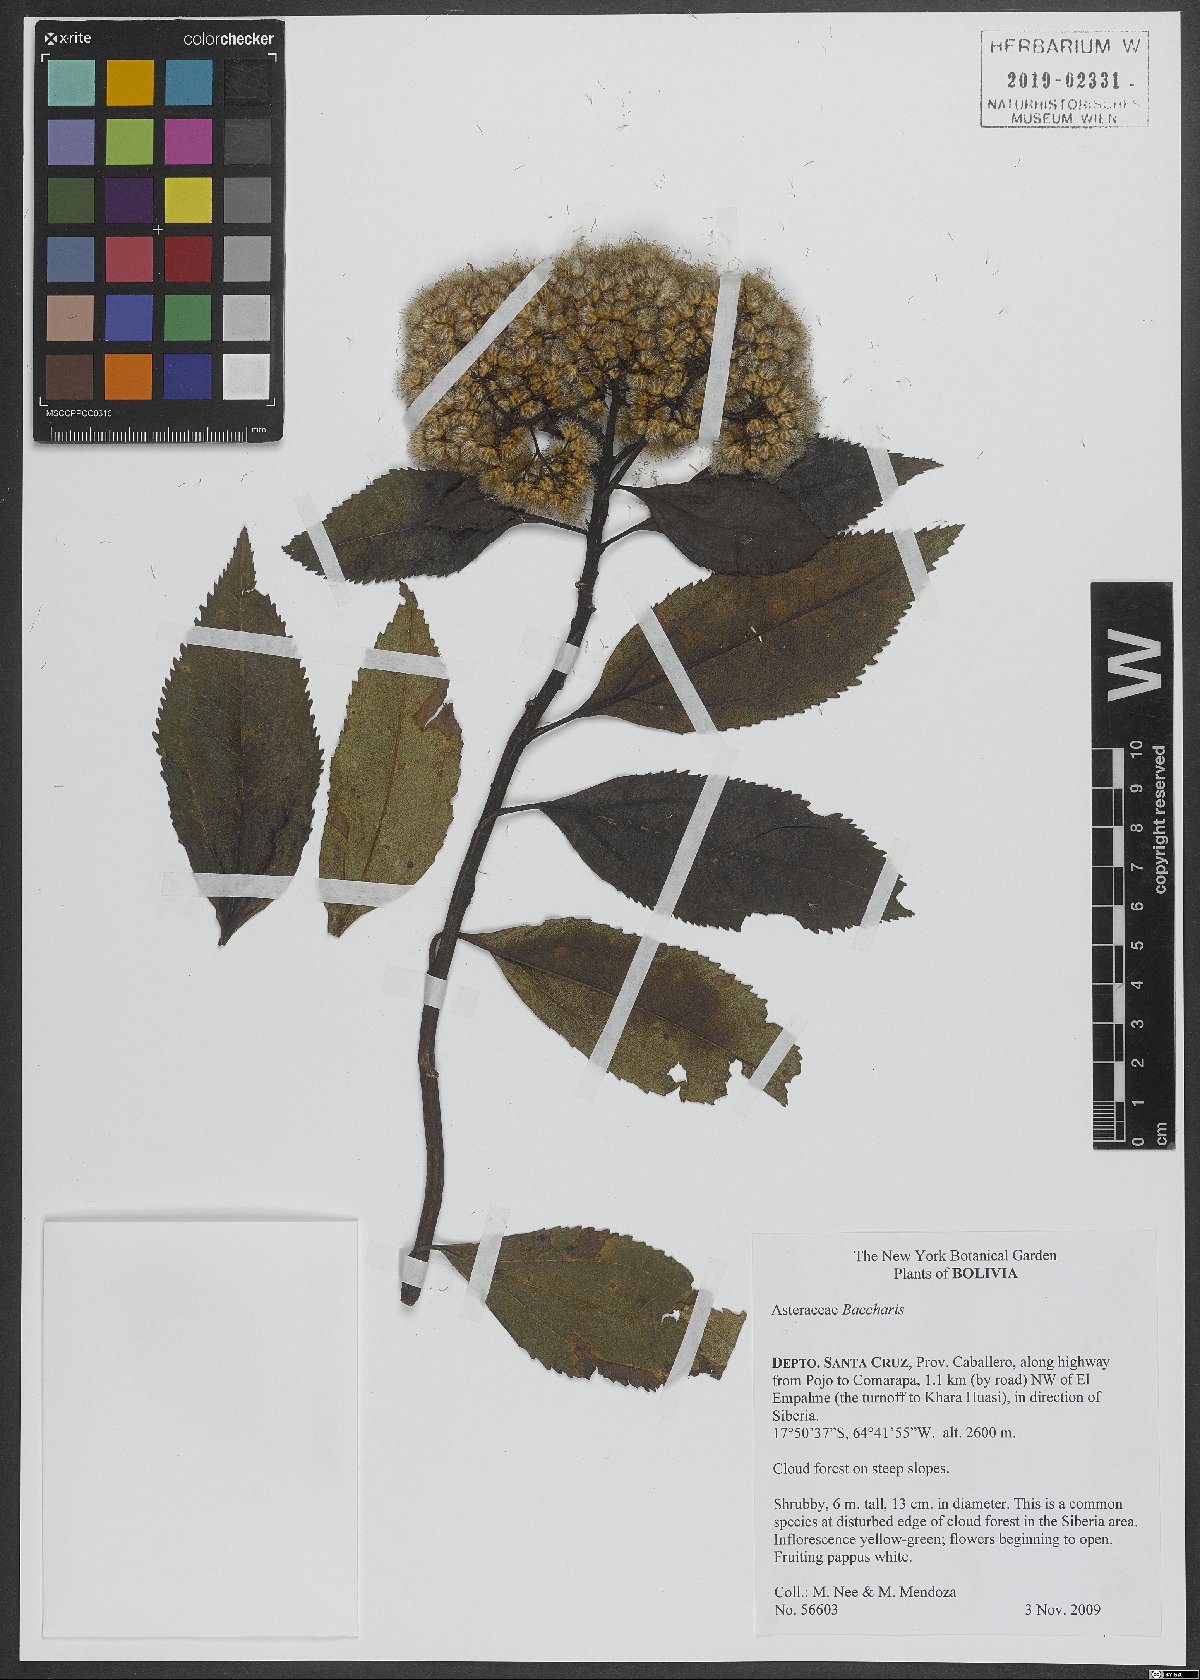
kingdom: Plantae
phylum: Tracheophyta
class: Magnoliopsida
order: Asterales
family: Asteraceae
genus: Baccharis
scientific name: Baccharis
